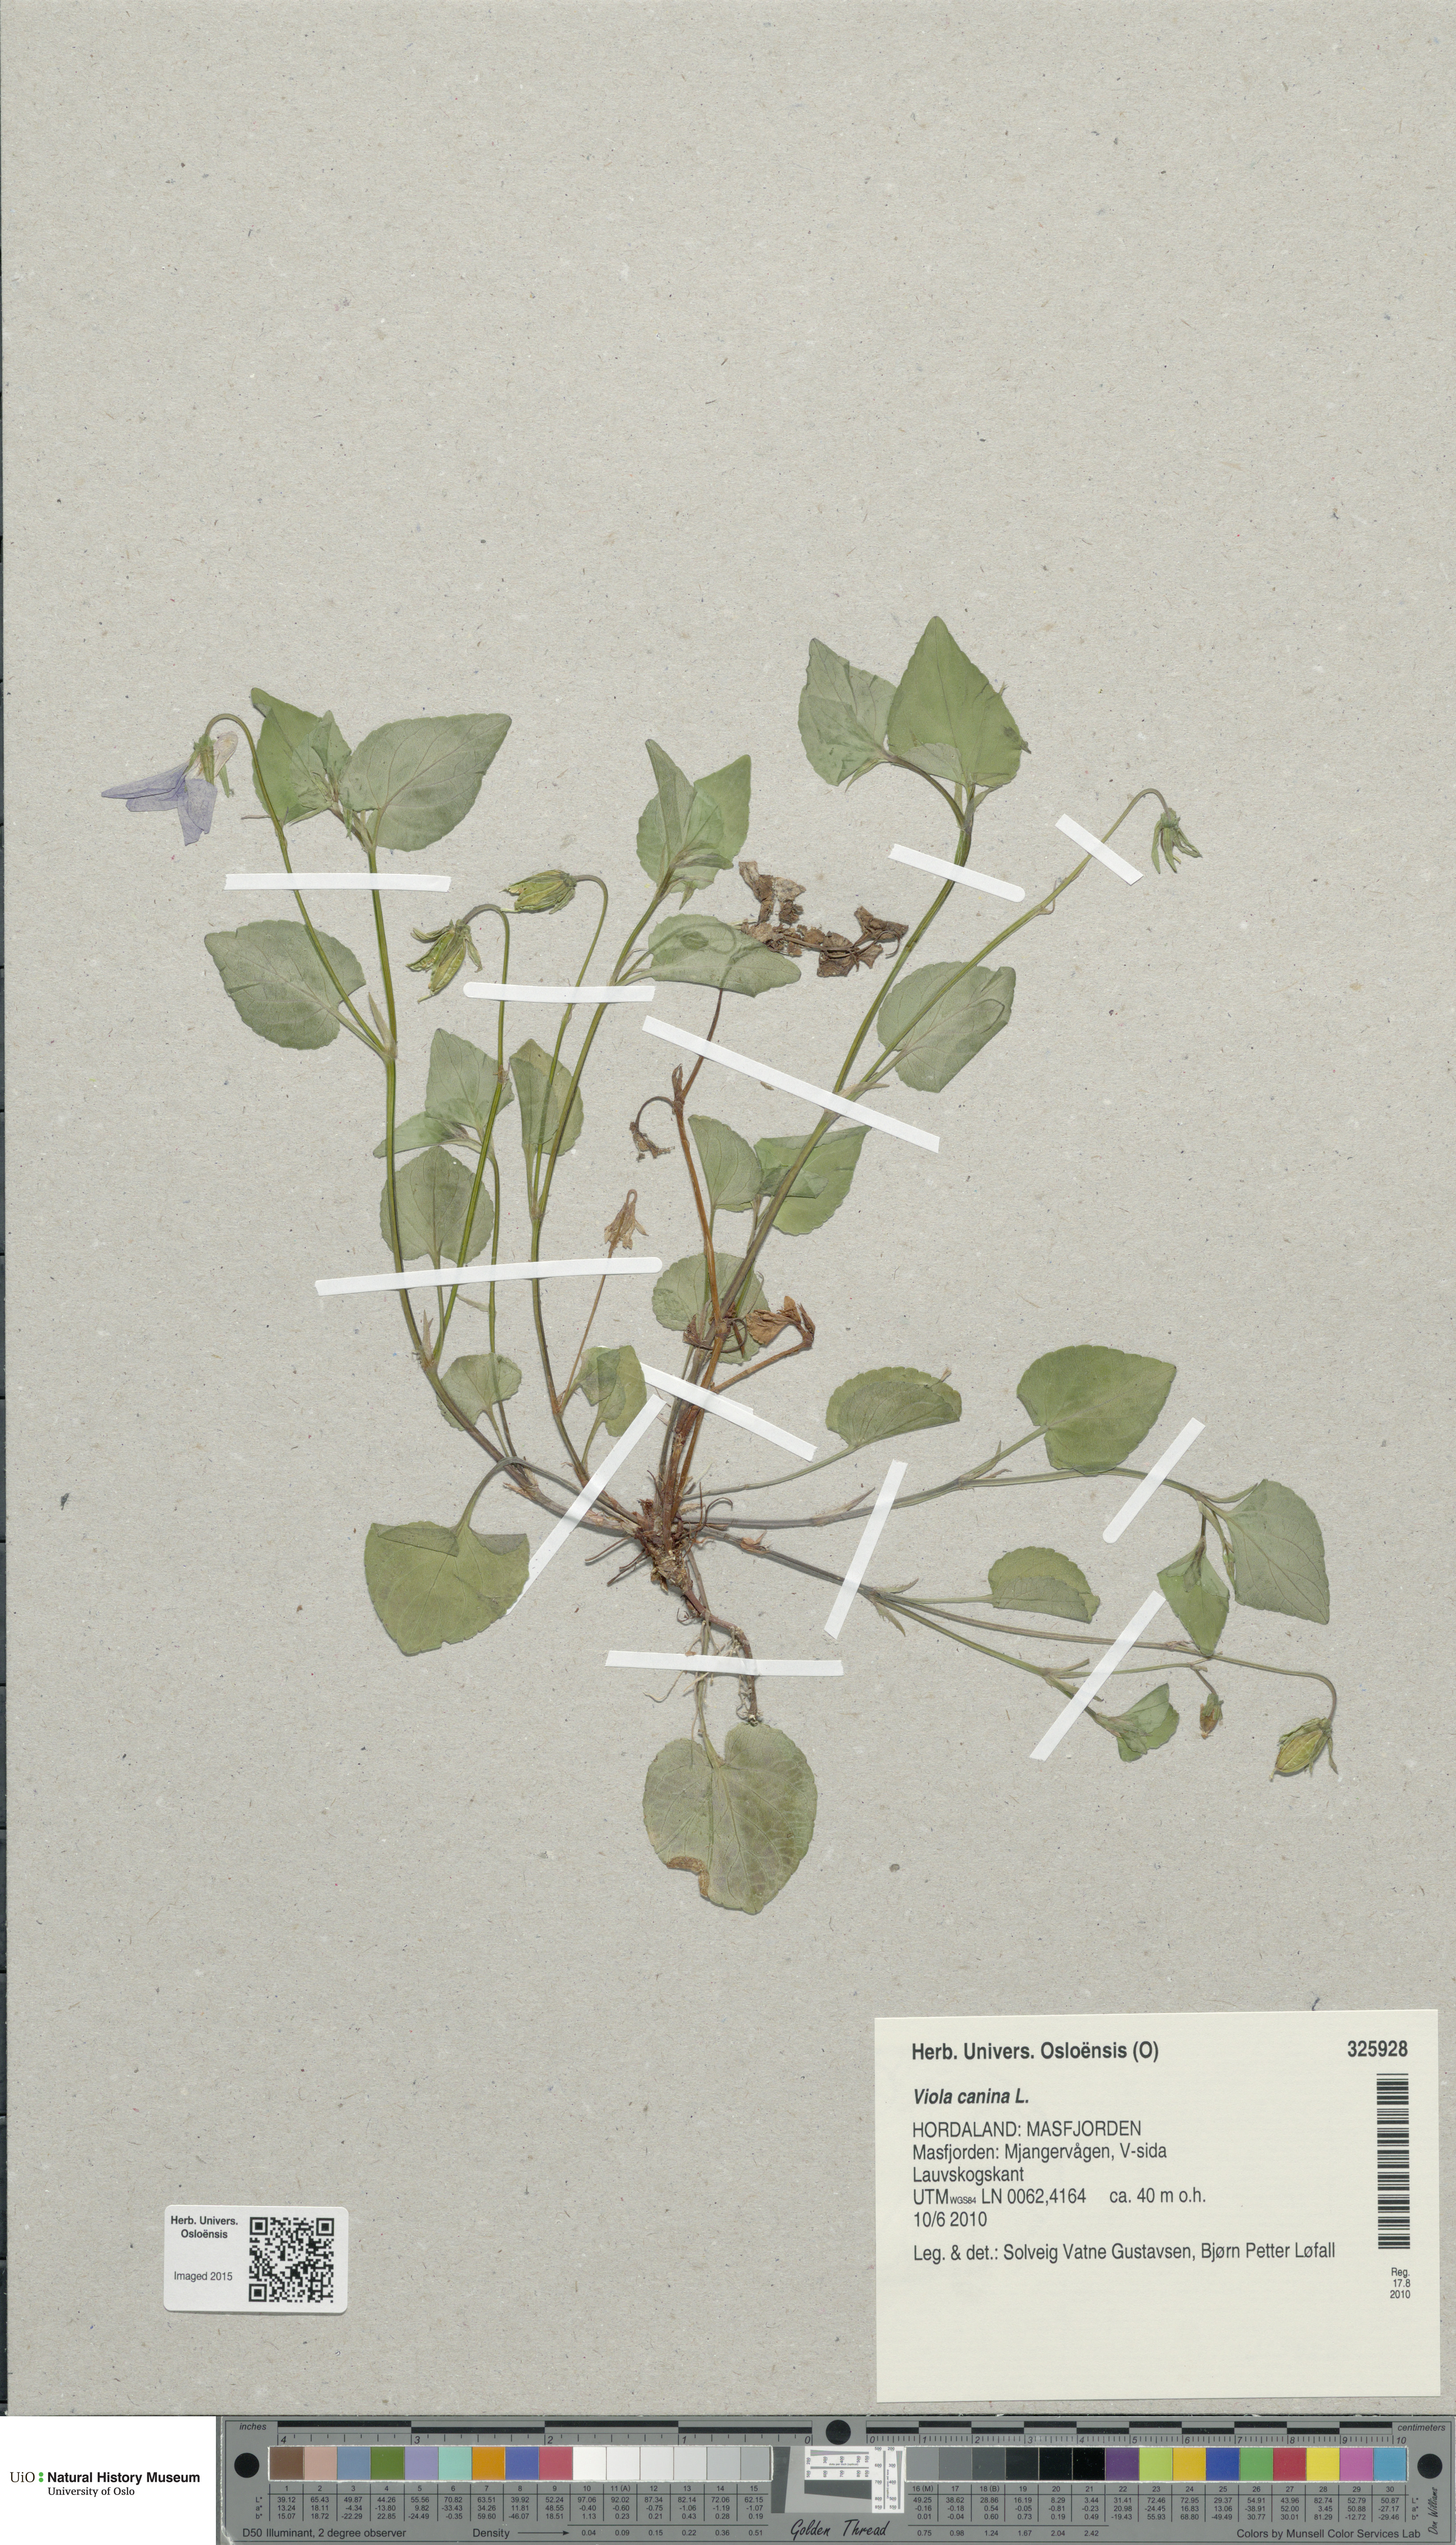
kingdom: Plantae
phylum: Tracheophyta
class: Magnoliopsida
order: Malpighiales
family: Violaceae
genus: Viola
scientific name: Viola canina
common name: Heath dog-violet
